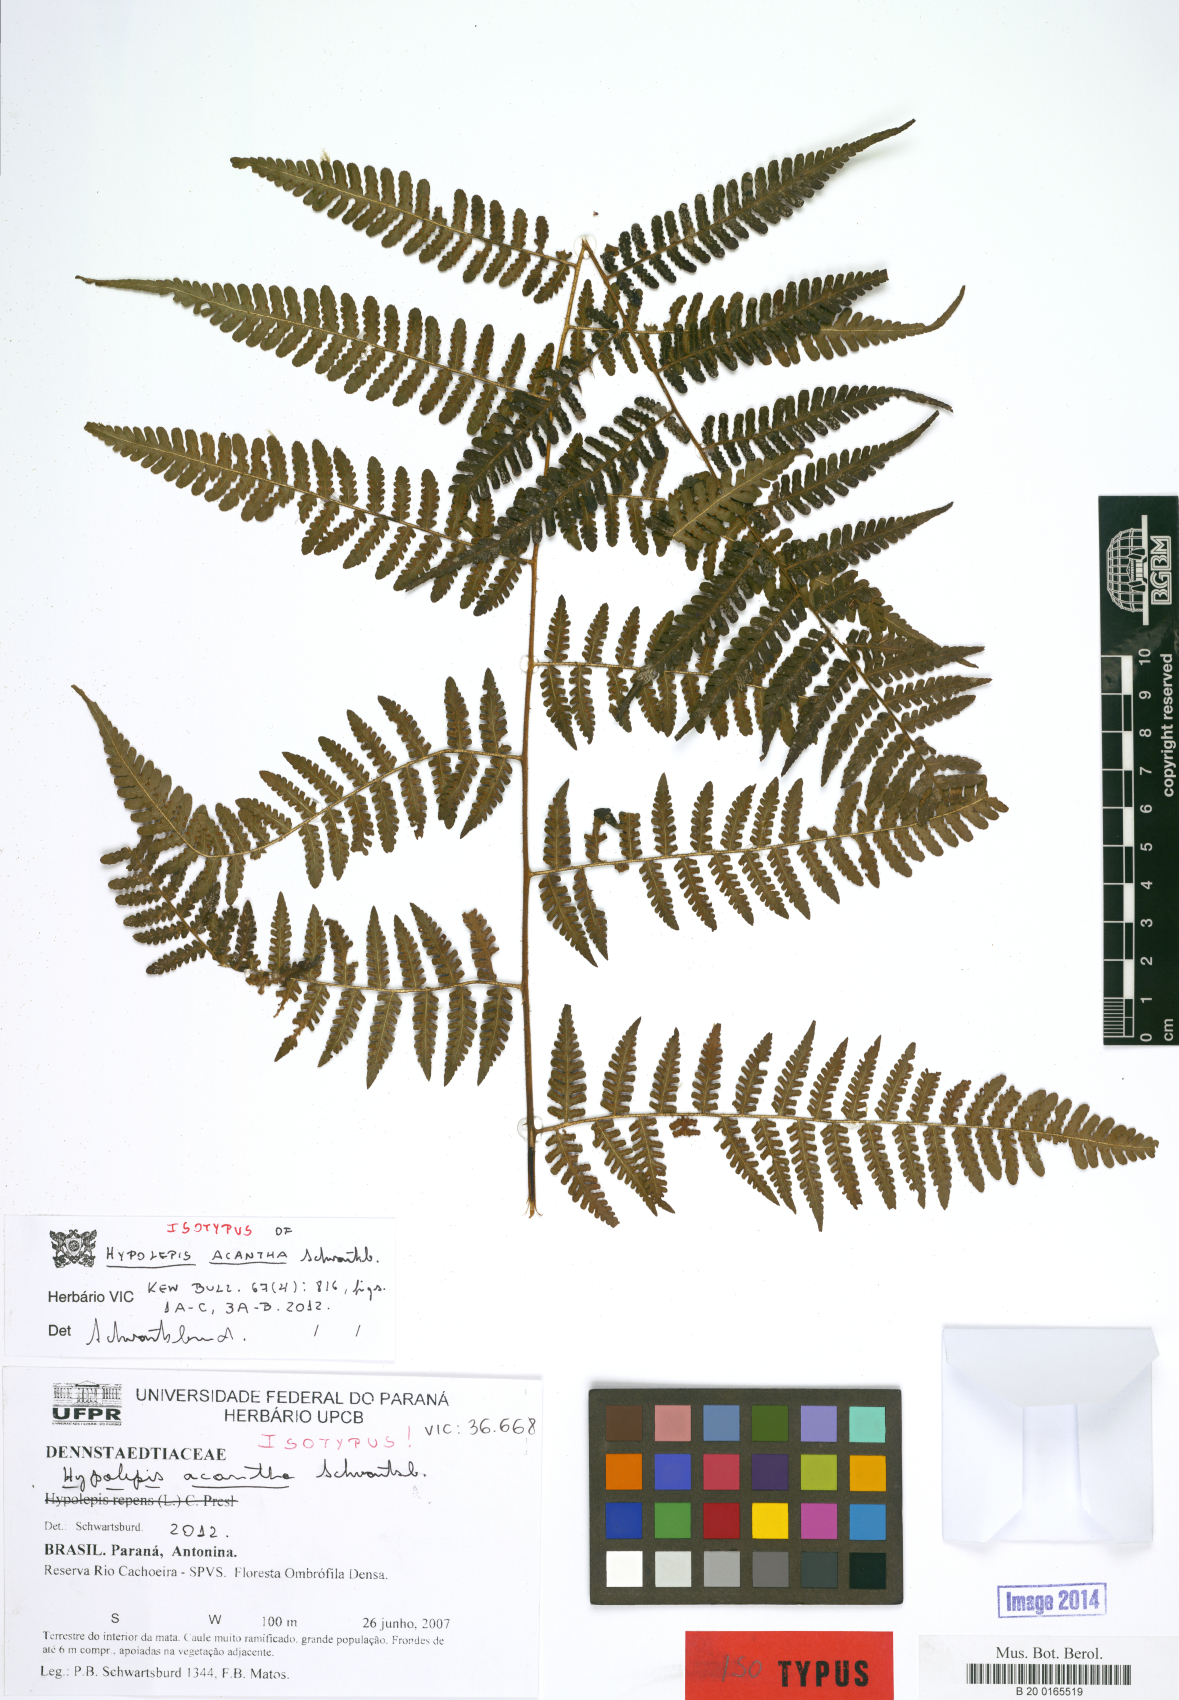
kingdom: Plantae
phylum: Tracheophyta
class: Polypodiopsida
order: Polypodiales
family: Dennstaedtiaceae
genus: Hypolepis
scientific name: Hypolepis acantha
